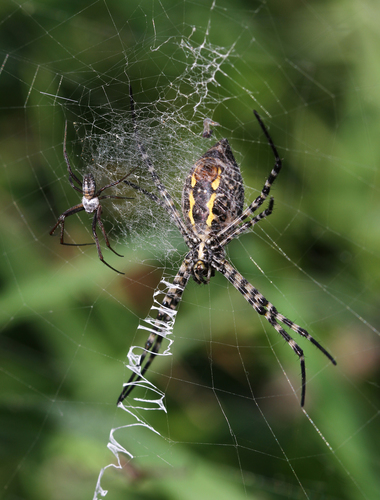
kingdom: Animalia
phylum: Arthropoda
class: Arachnida
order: Araneae
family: Araneidae
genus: Argiope
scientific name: Argiope trifasciata
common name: Banded garden spider
